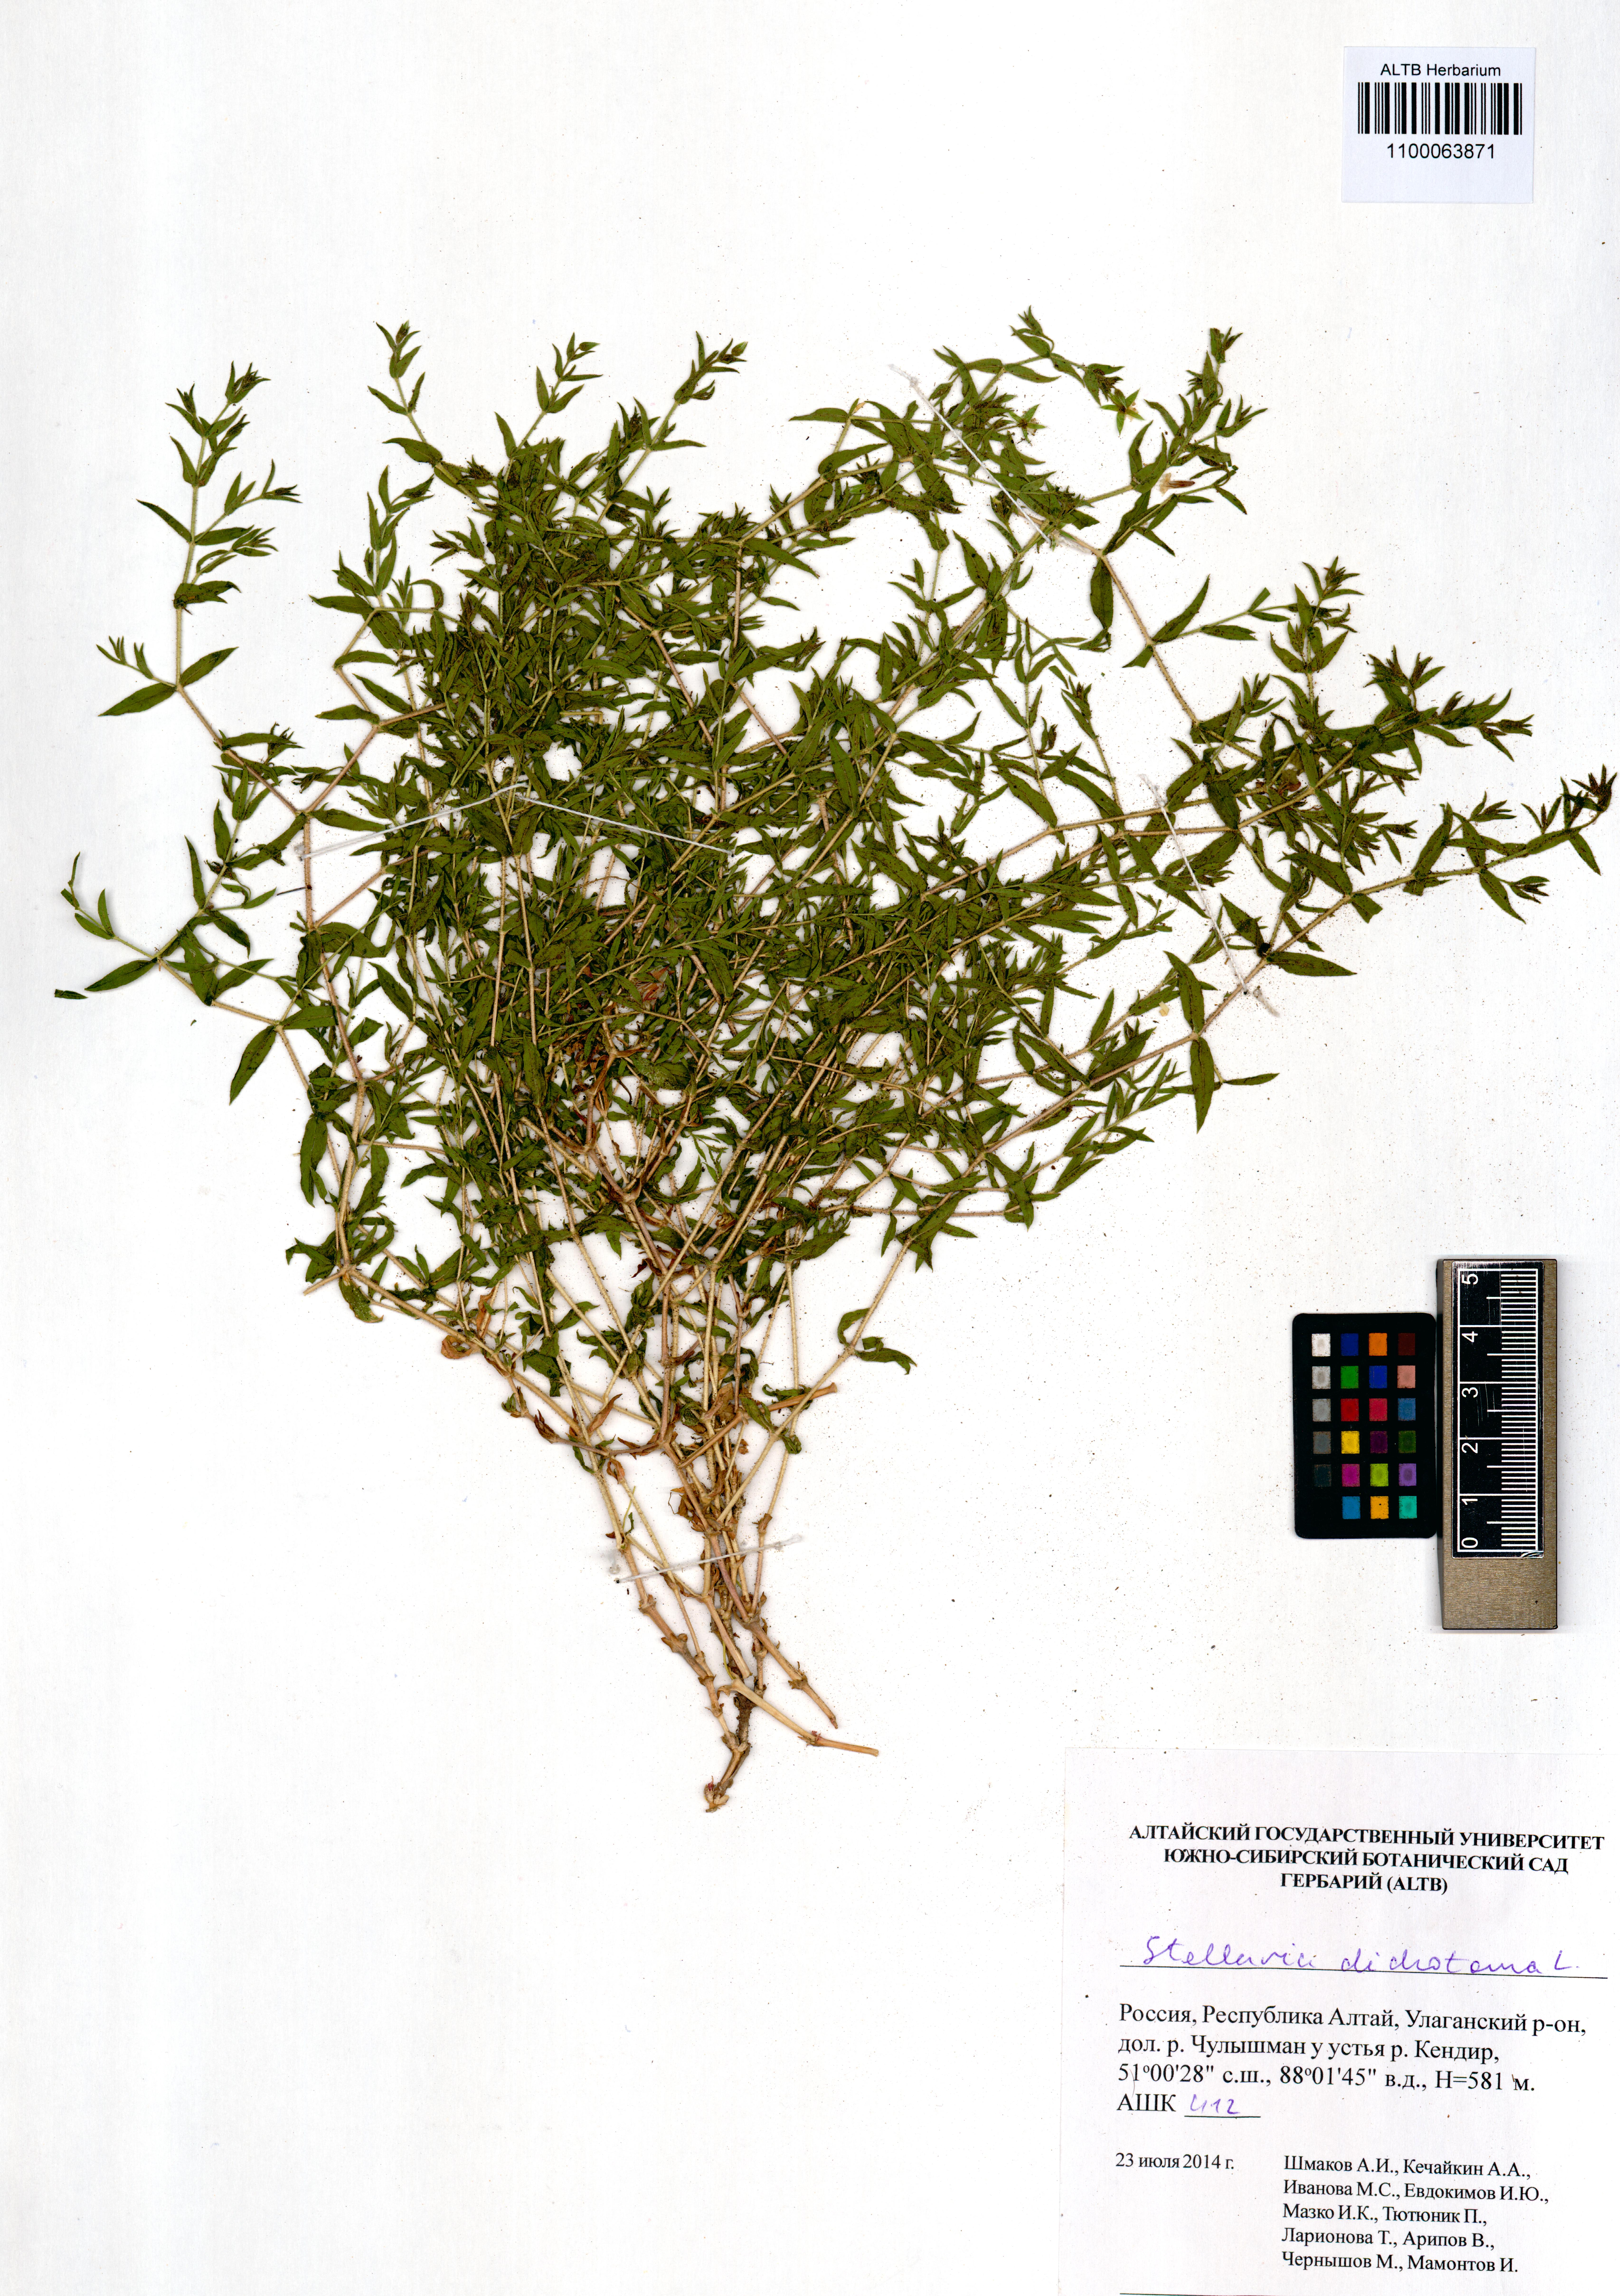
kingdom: Plantae
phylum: Tracheophyta
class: Magnoliopsida
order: Caryophyllales
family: Caryophyllaceae
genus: Mesostemma
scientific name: Mesostemma dichotomum
